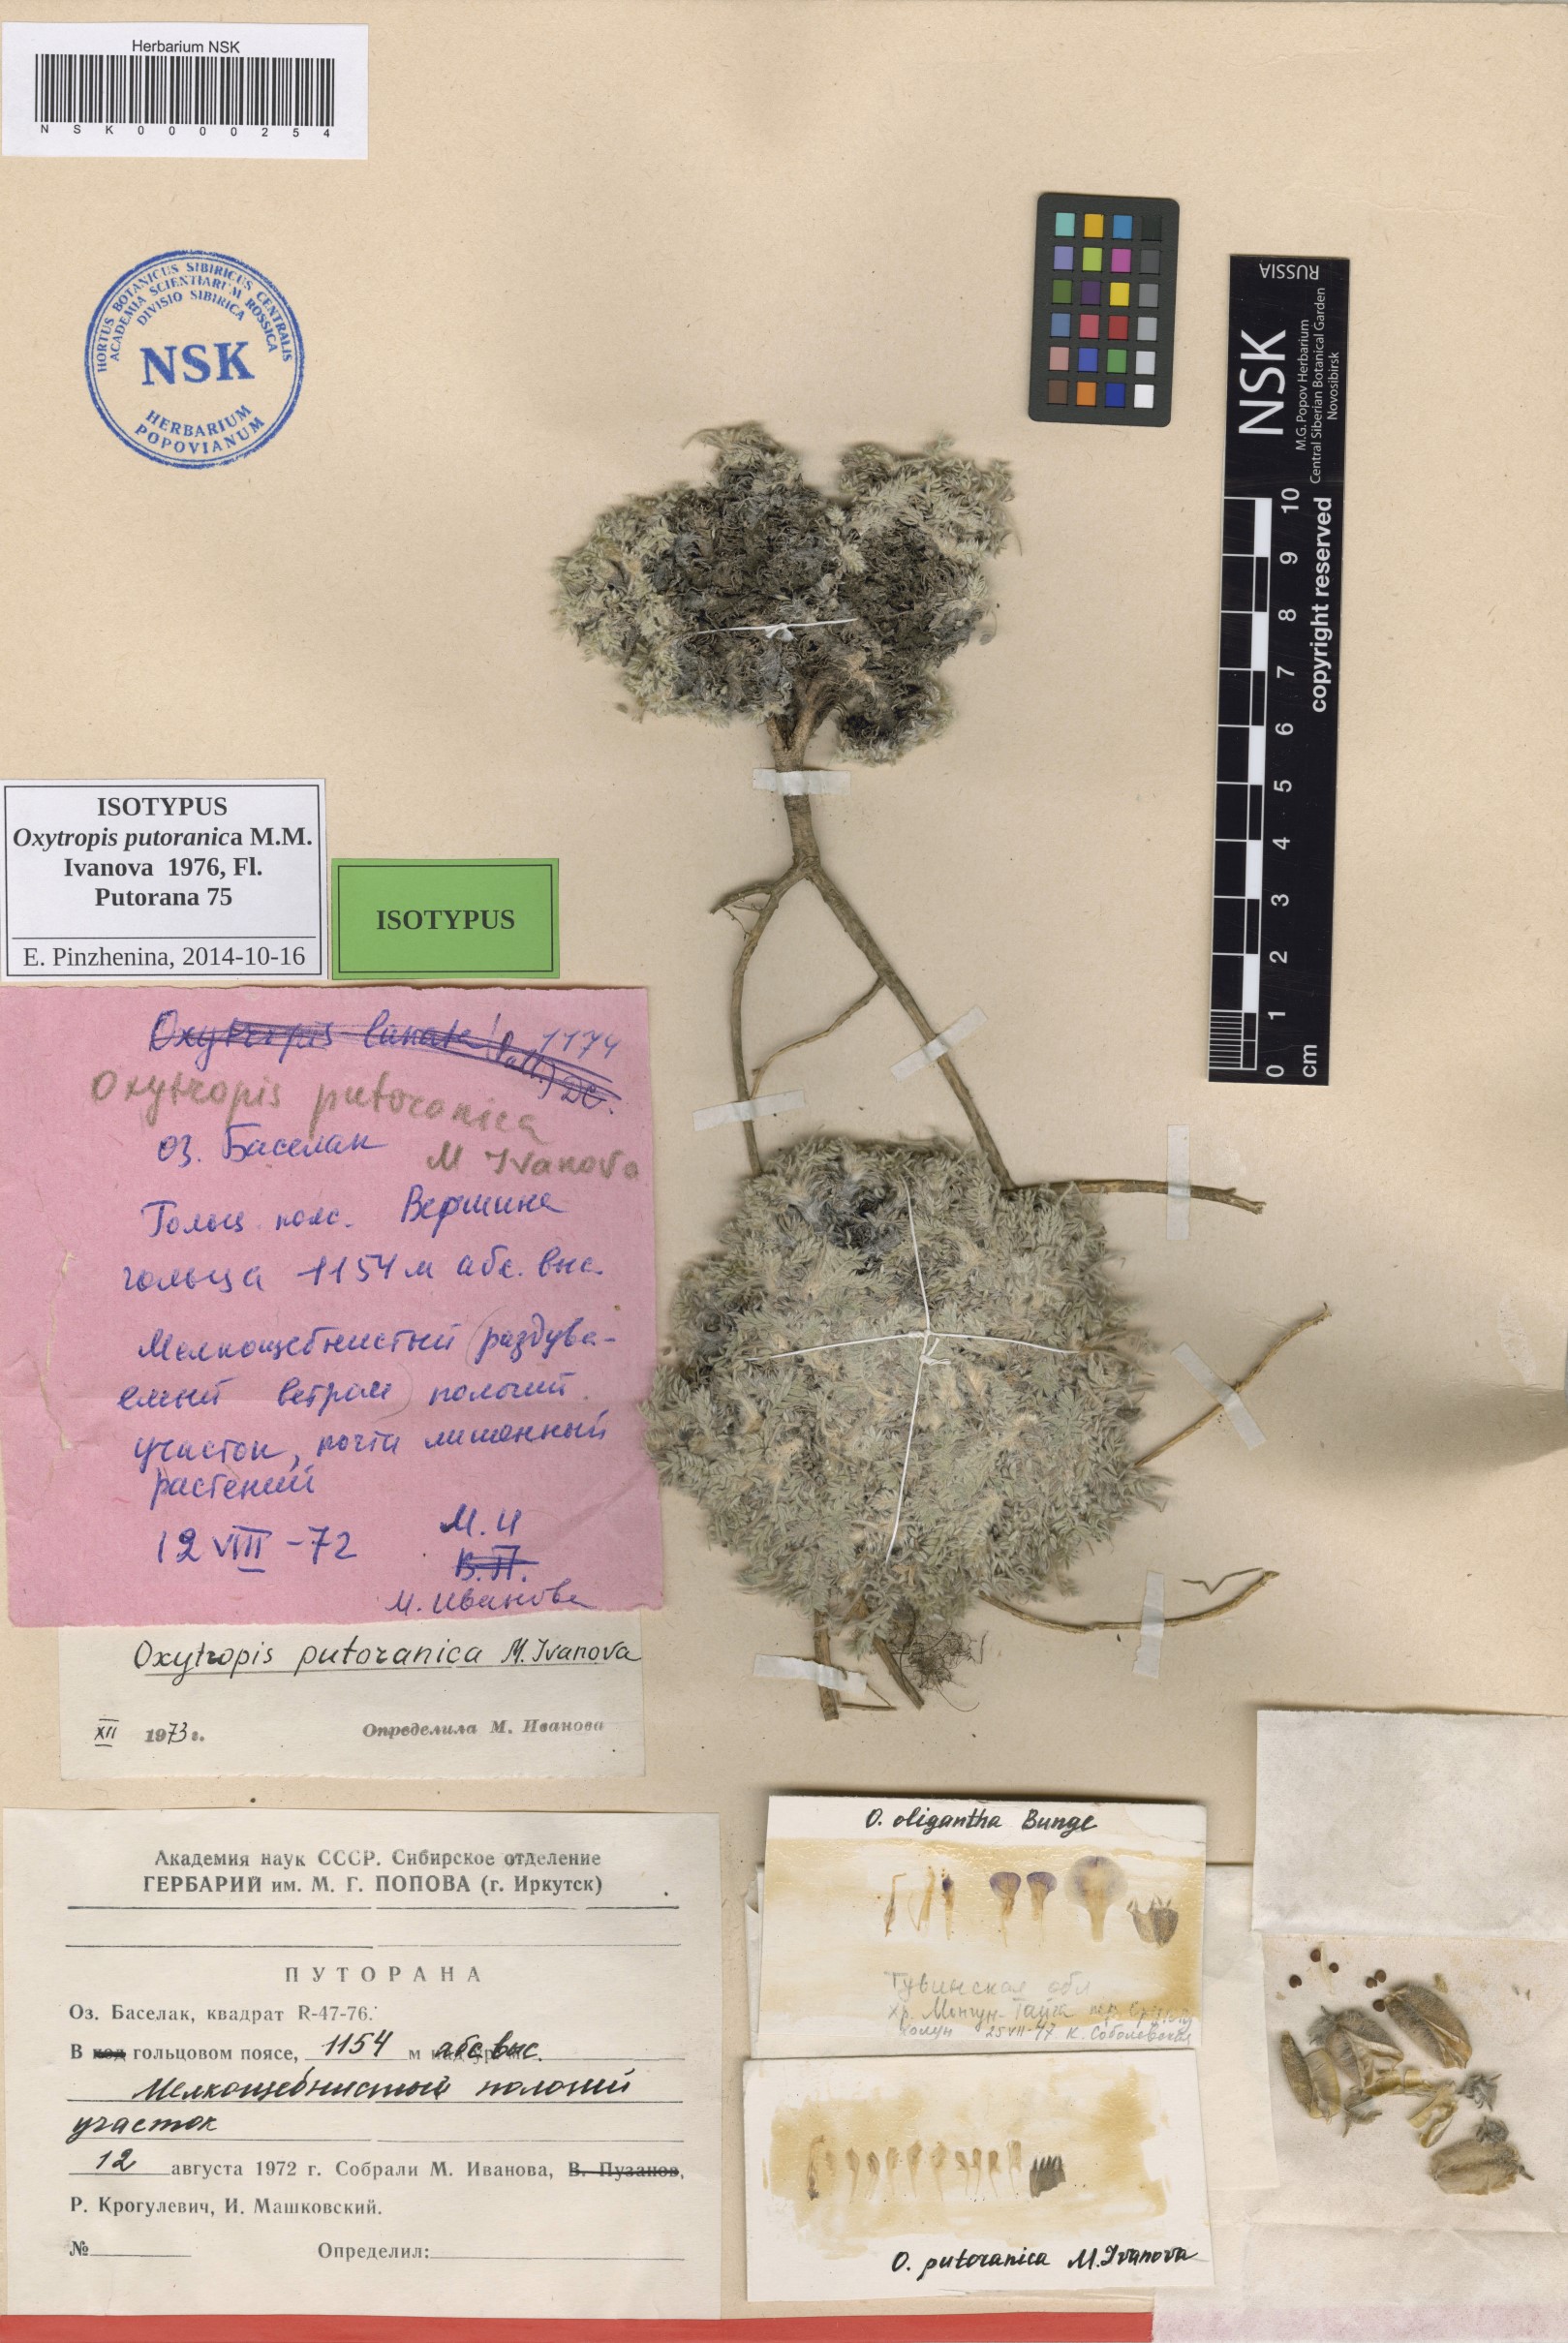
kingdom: Plantae
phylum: Tracheophyta
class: Magnoliopsida
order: Fabales
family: Fabaceae
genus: Oxytropis
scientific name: Oxytropis putoranica
